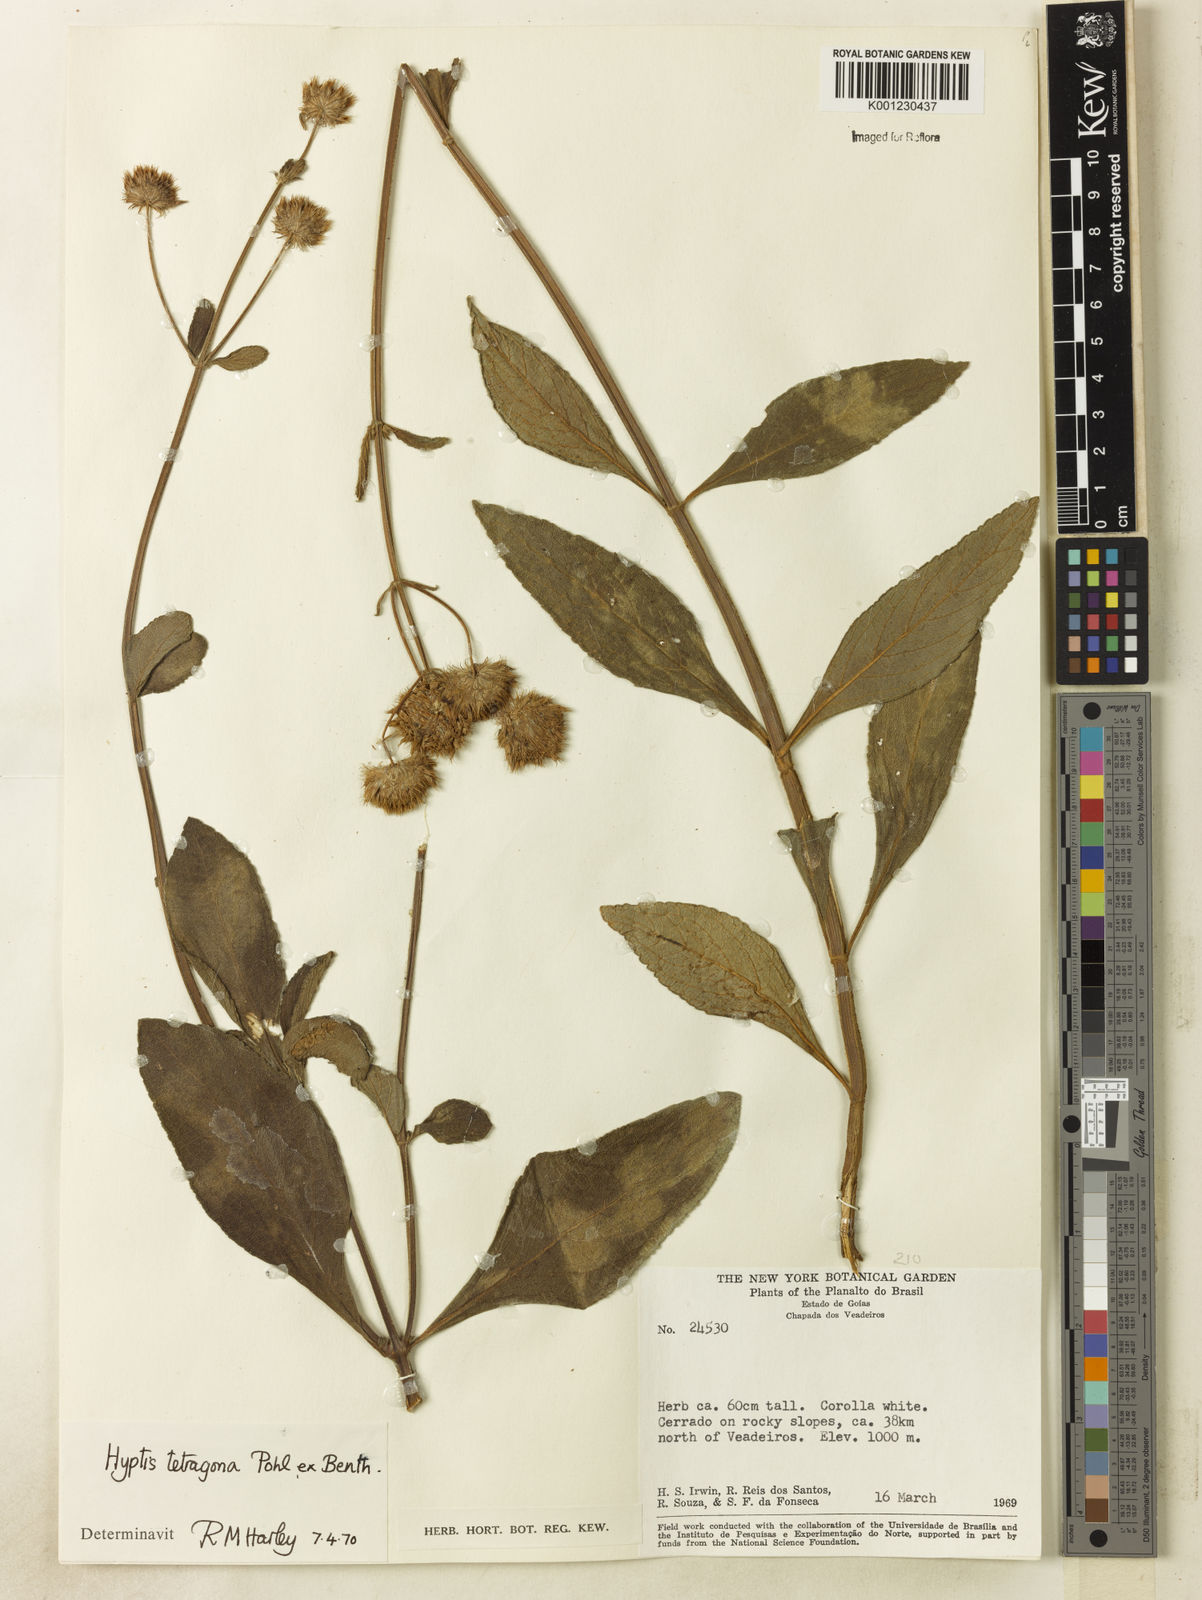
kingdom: Plantae
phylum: Tracheophyta
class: Magnoliopsida
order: Lamiales
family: Lamiaceae
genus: Hyptis
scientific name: Hyptis
